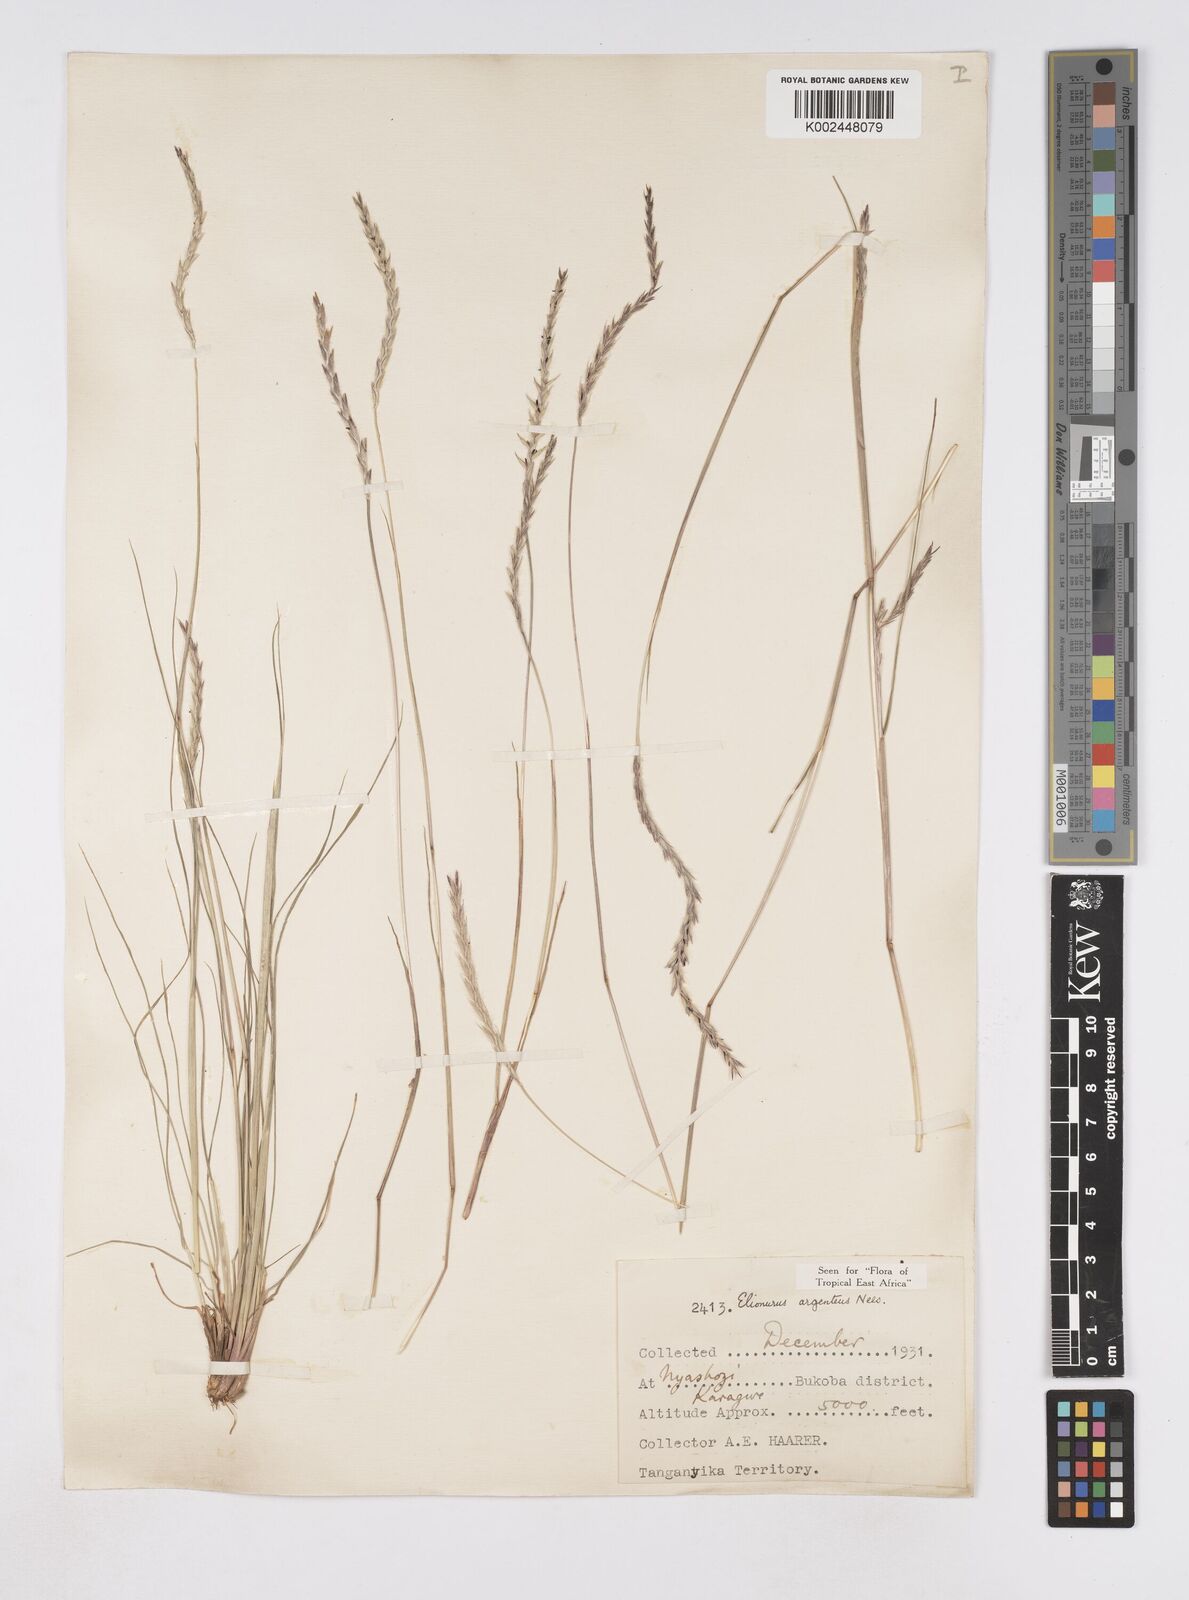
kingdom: Plantae
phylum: Tracheophyta
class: Liliopsida
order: Poales
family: Poaceae
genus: Elionurus
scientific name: Elionurus muticus
